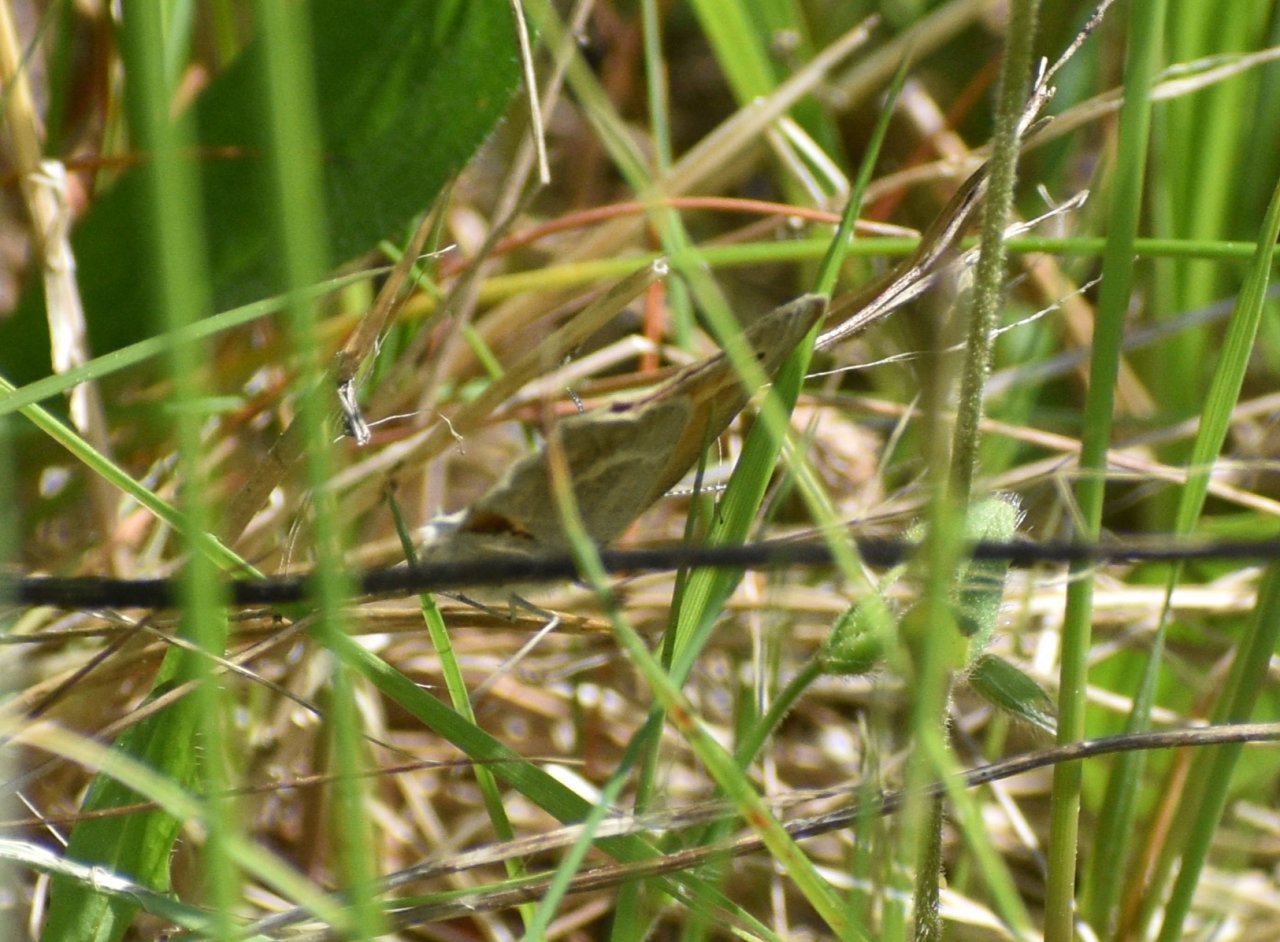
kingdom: Animalia
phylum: Arthropoda
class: Insecta
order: Lepidoptera
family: Nymphalidae
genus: Coenonympha
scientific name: Coenonympha tullia
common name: Large Heath
